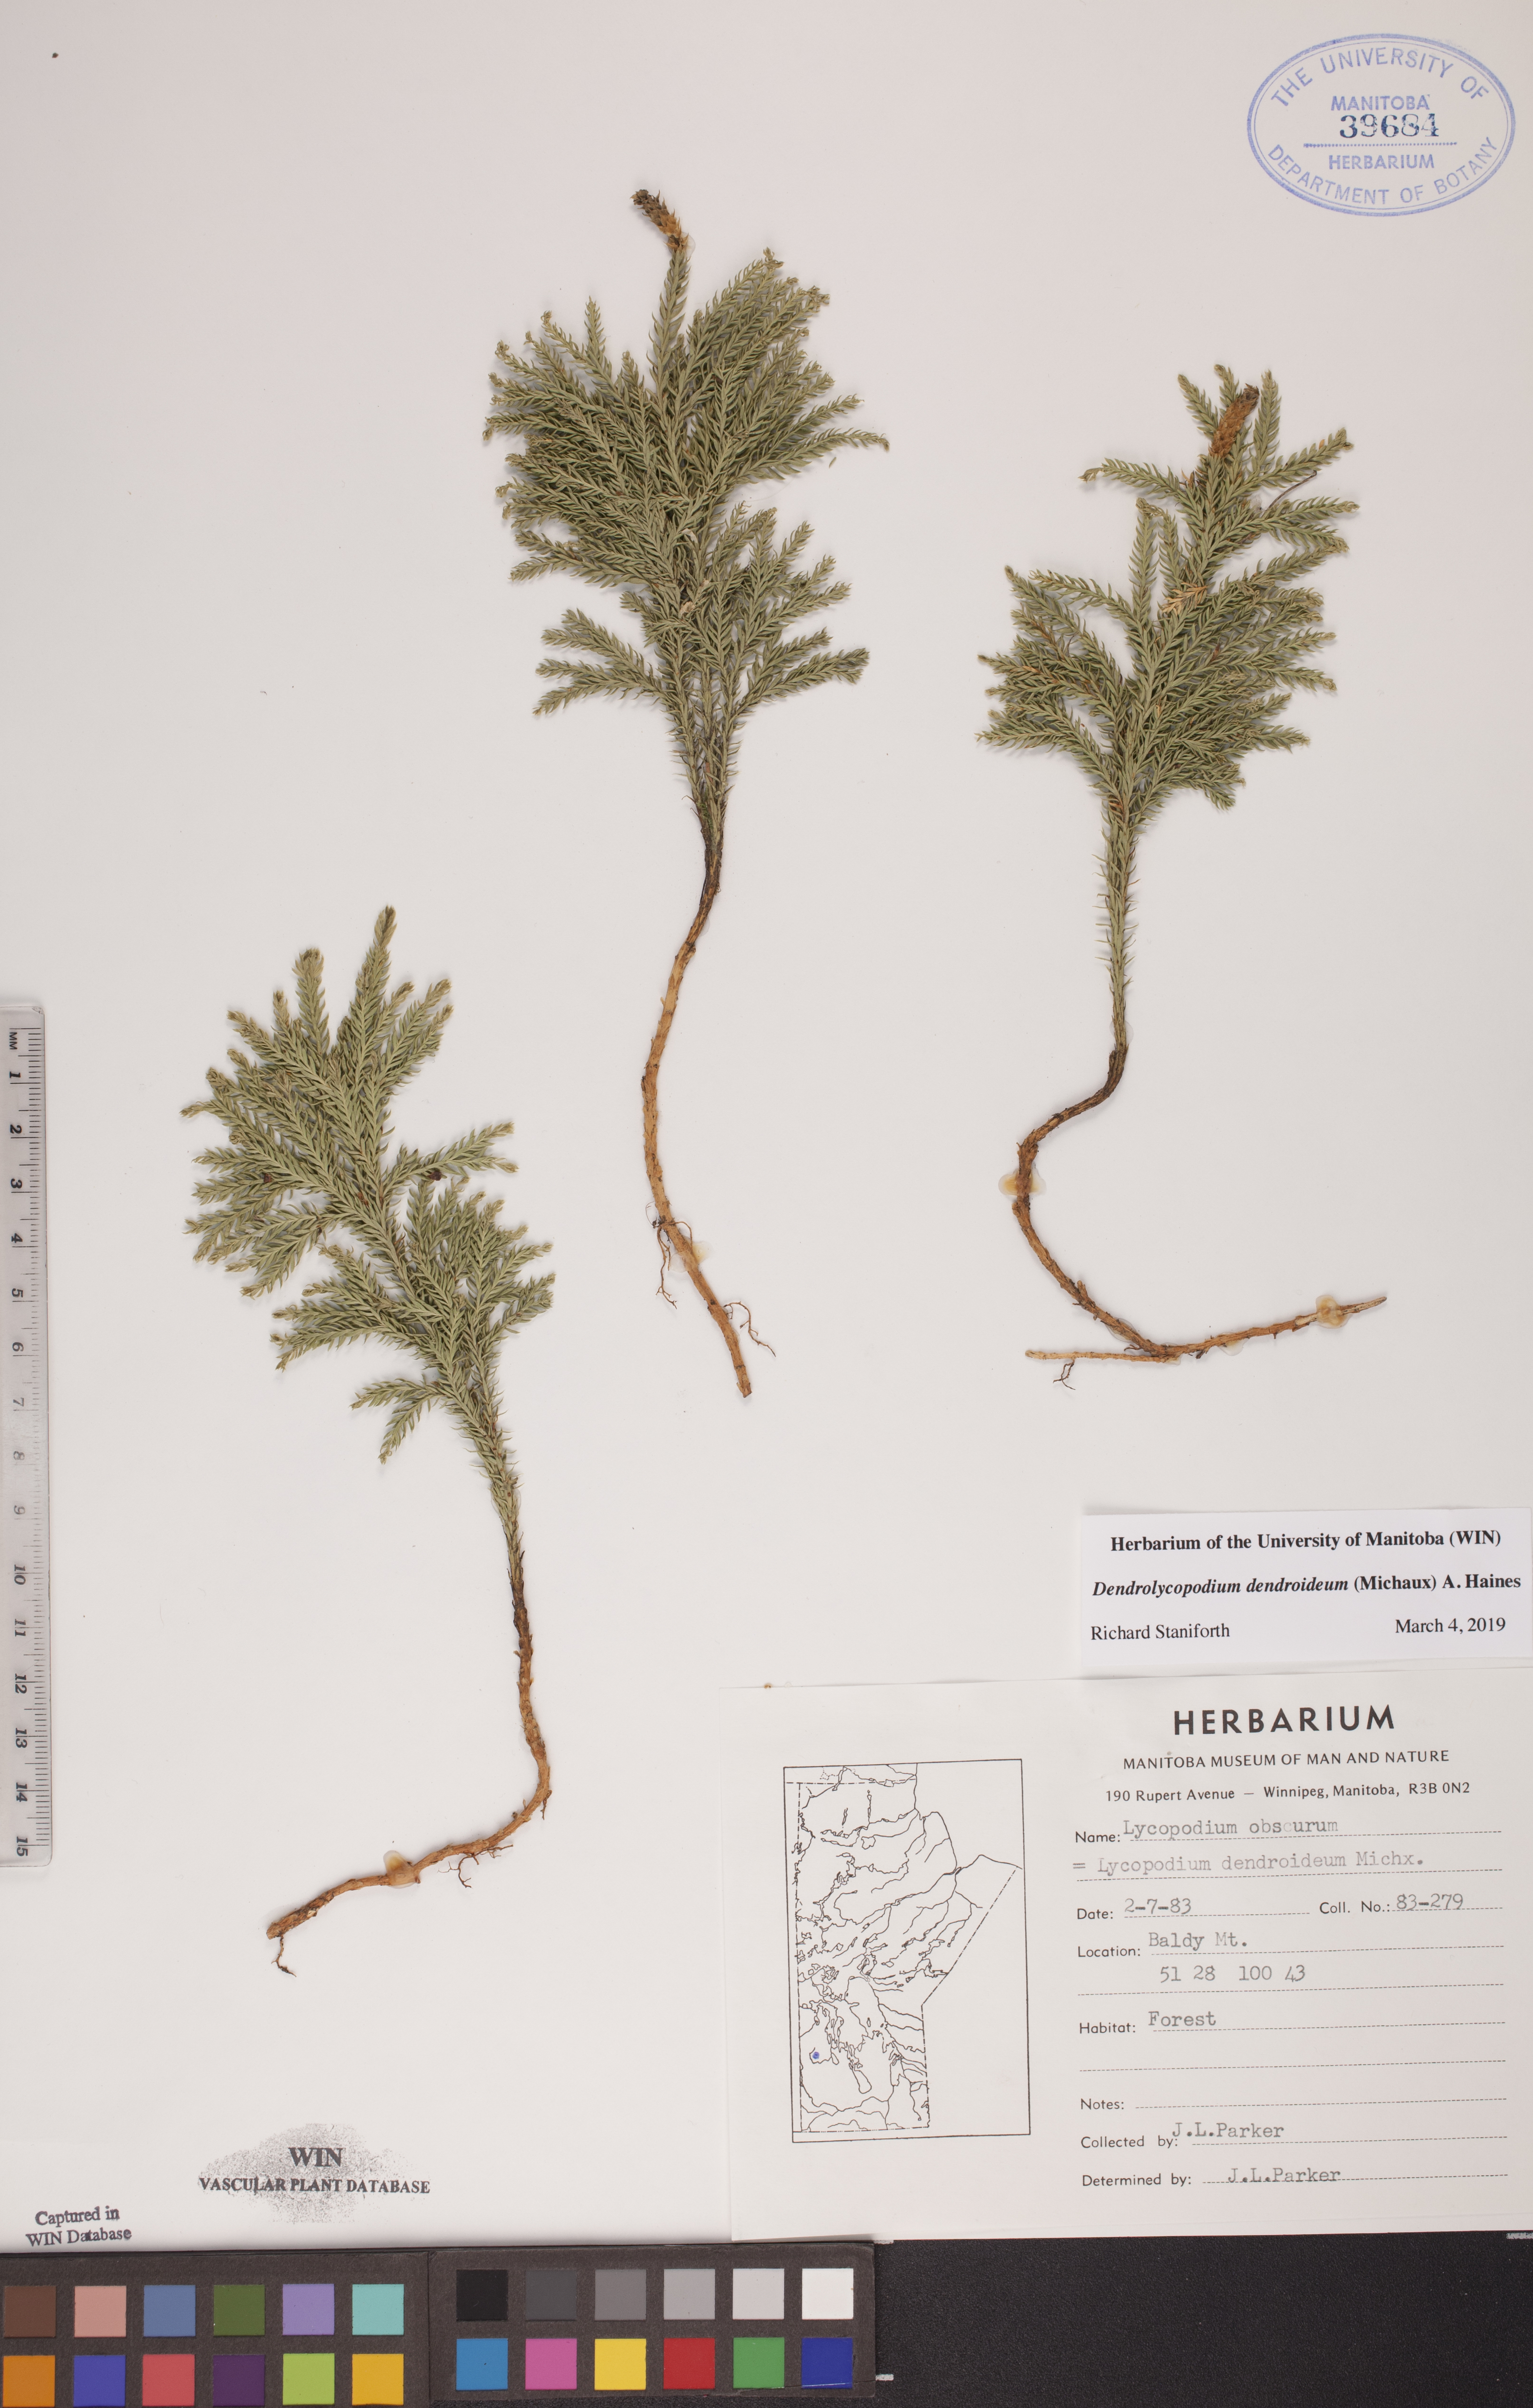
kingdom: Plantae
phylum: Tracheophyta
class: Lycopodiopsida
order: Lycopodiales
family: Lycopodiaceae
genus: Dendrolycopodium
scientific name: Dendrolycopodium dendroideum
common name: Northern tree-clubmoss
